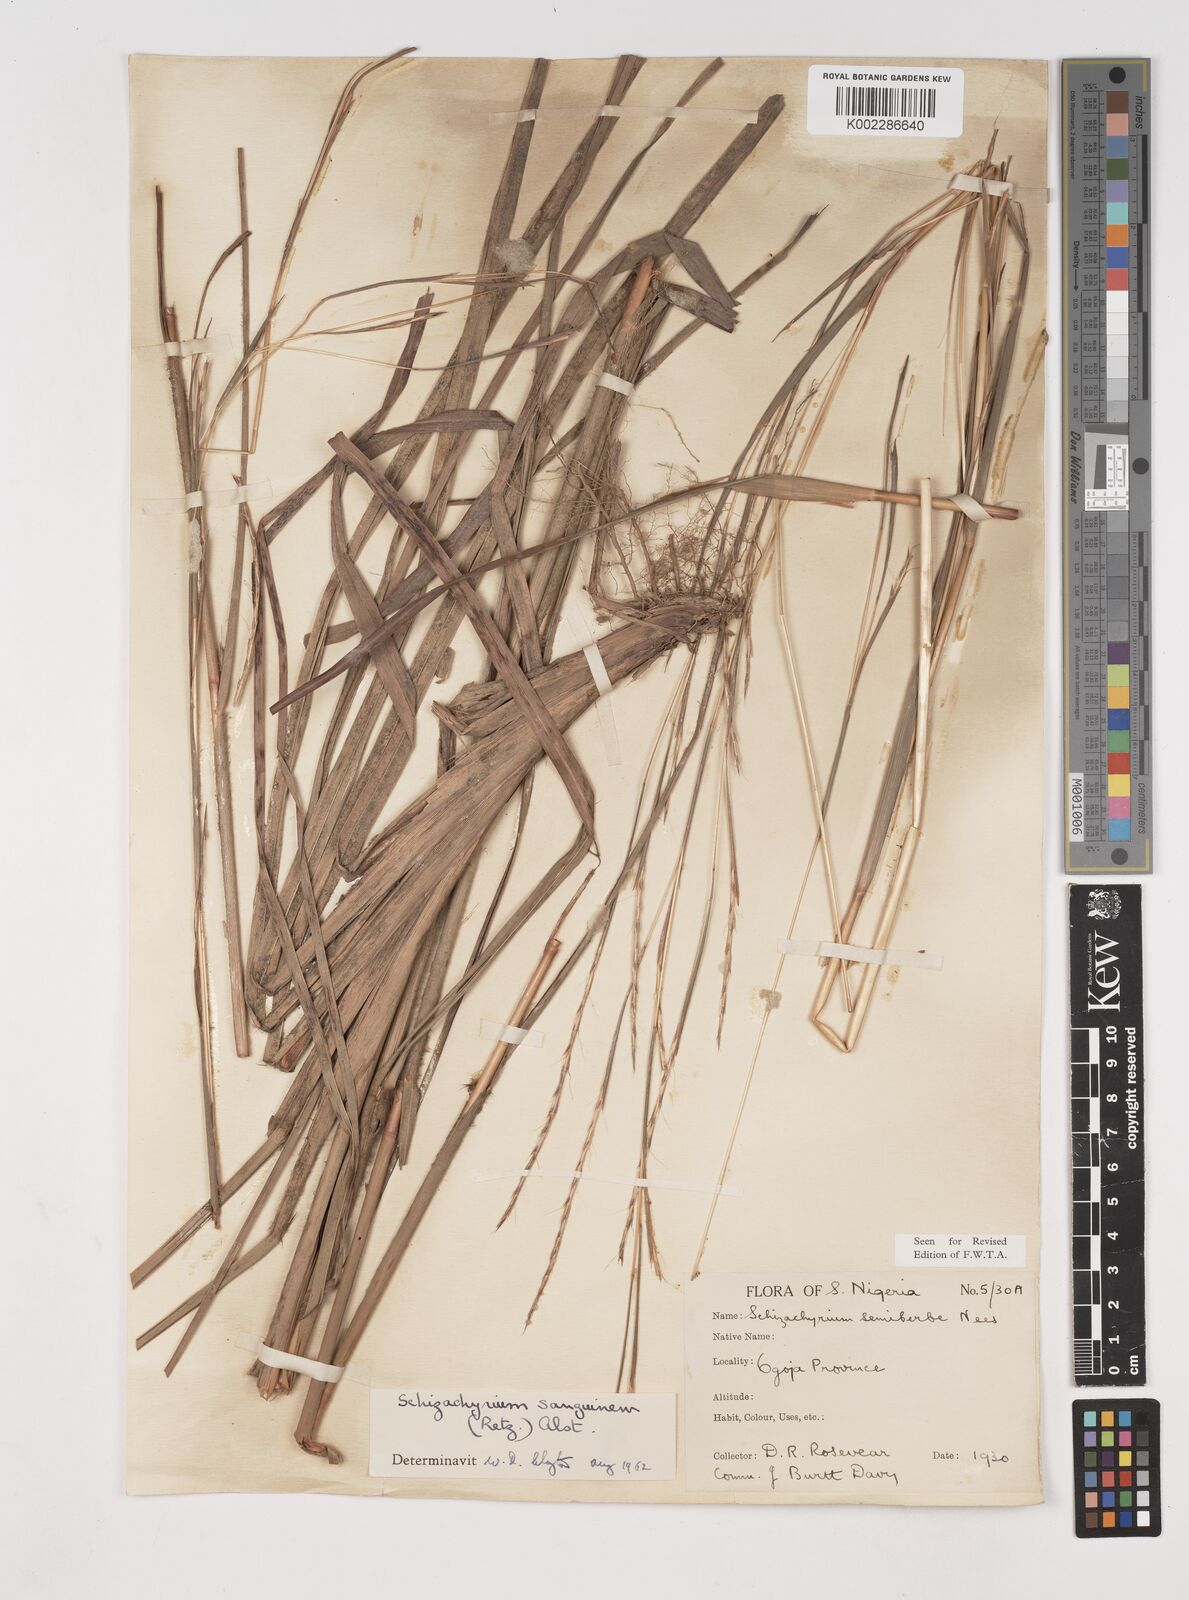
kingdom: Plantae
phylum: Tracheophyta
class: Liliopsida
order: Poales
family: Poaceae
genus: Schizachyrium
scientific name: Schizachyrium sanguineum
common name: Crimson bluestem
